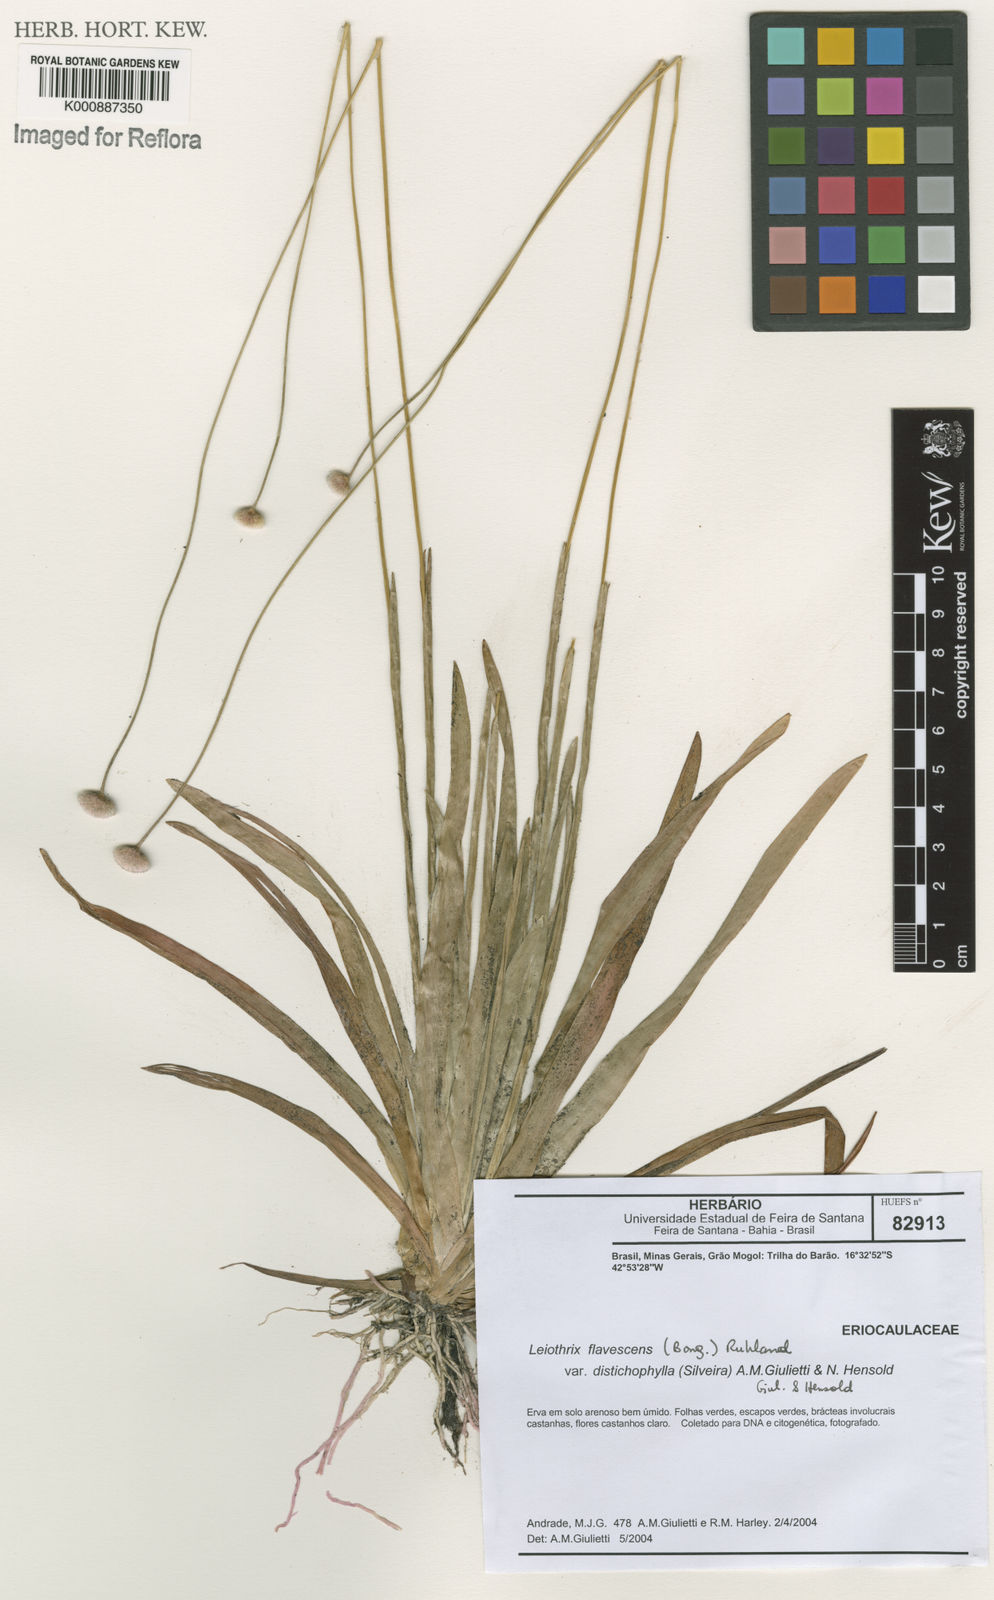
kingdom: Plantae
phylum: Tracheophyta
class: Liliopsida
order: Poales
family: Eriocaulaceae
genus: Leiothrix
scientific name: Leiothrix flavescens
